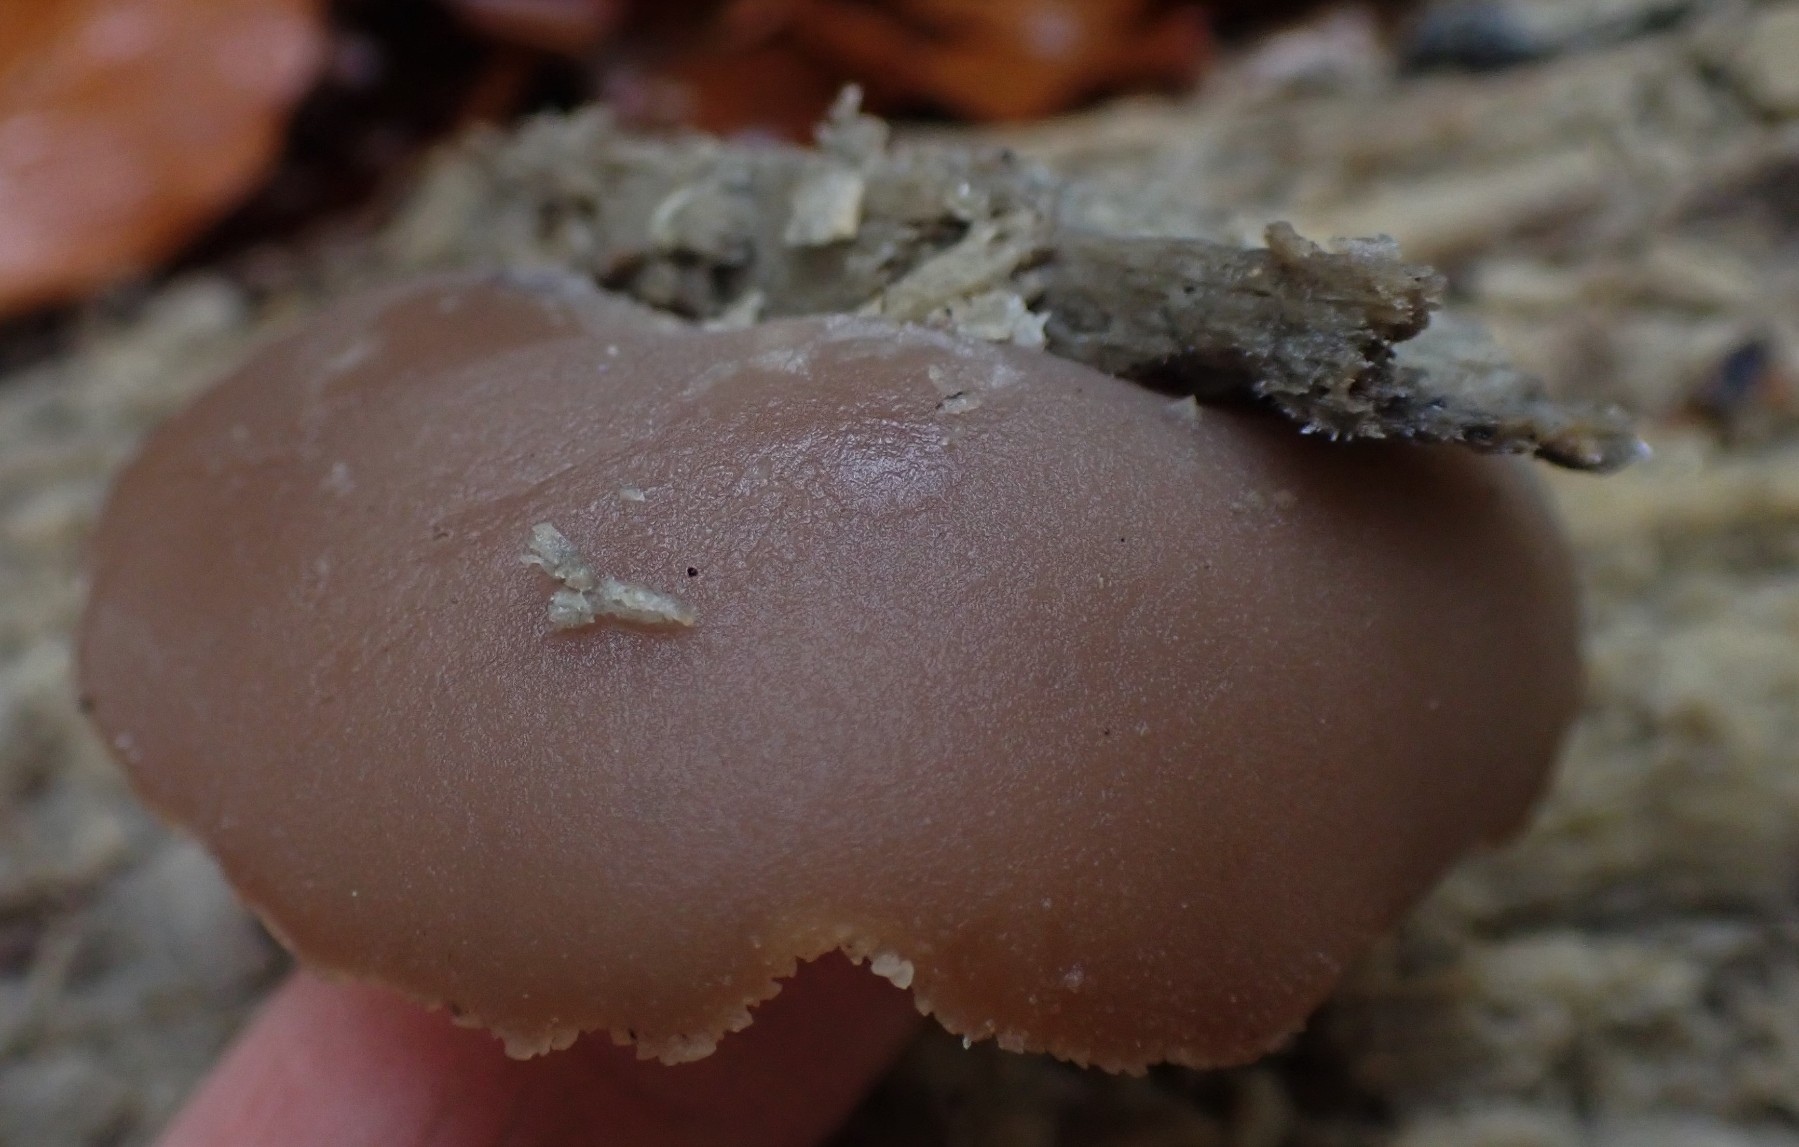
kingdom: Fungi
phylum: Ascomycota
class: Pezizomycetes
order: Pezizales
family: Pezizaceae
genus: Peziza
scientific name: Peziza varia
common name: Ved-bægersvamp
